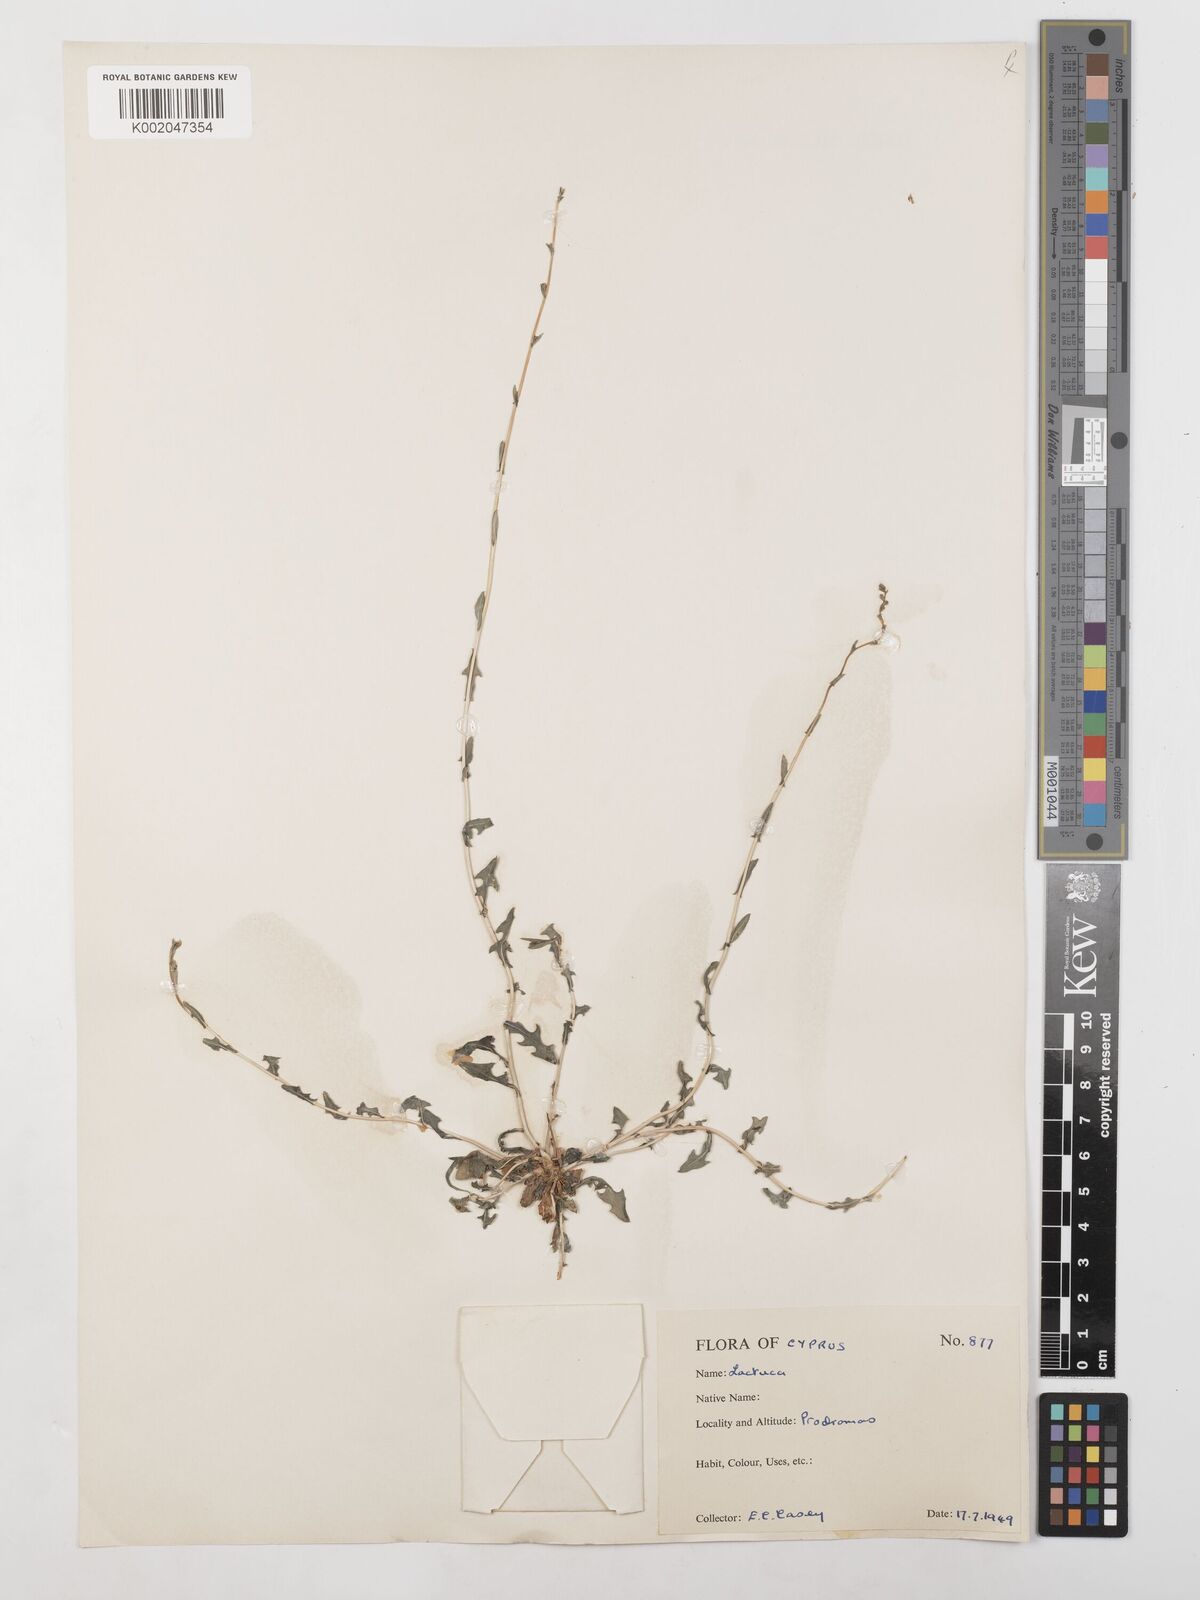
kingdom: Plantae
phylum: Tracheophyta
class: Magnoliopsida
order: Asterales
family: Asteraceae
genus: Lactuca
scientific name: Lactuca saligna
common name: Wild lettuce
